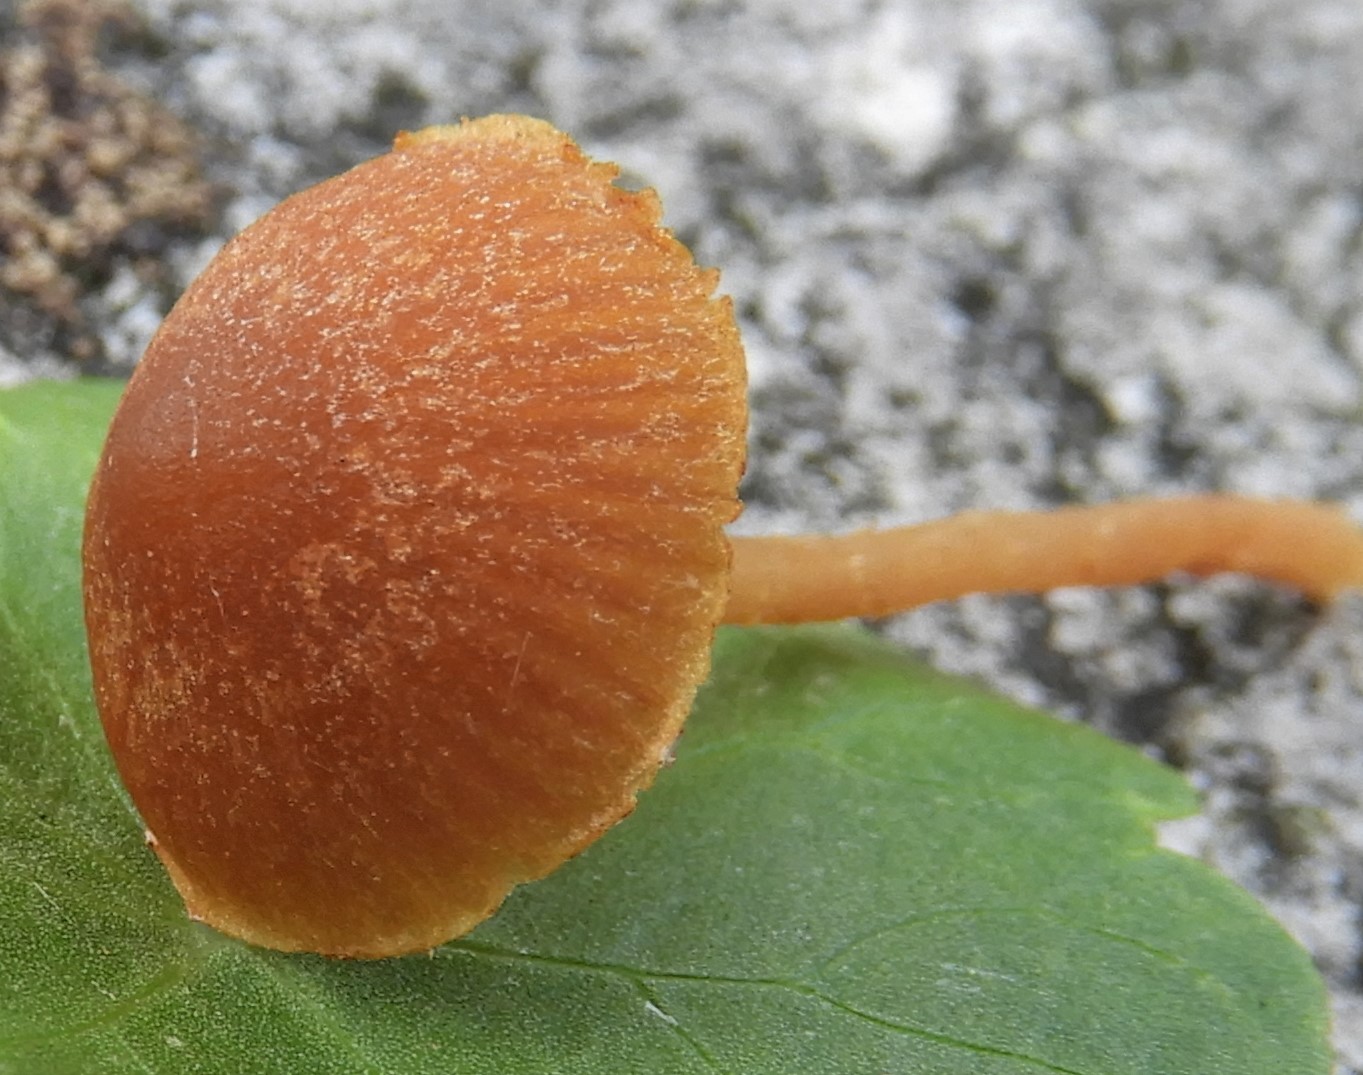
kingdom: Fungi
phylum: Basidiomycota
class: Agaricomycetes
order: Agaricales
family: Hymenogastraceae
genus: Galerina
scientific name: Galerina
